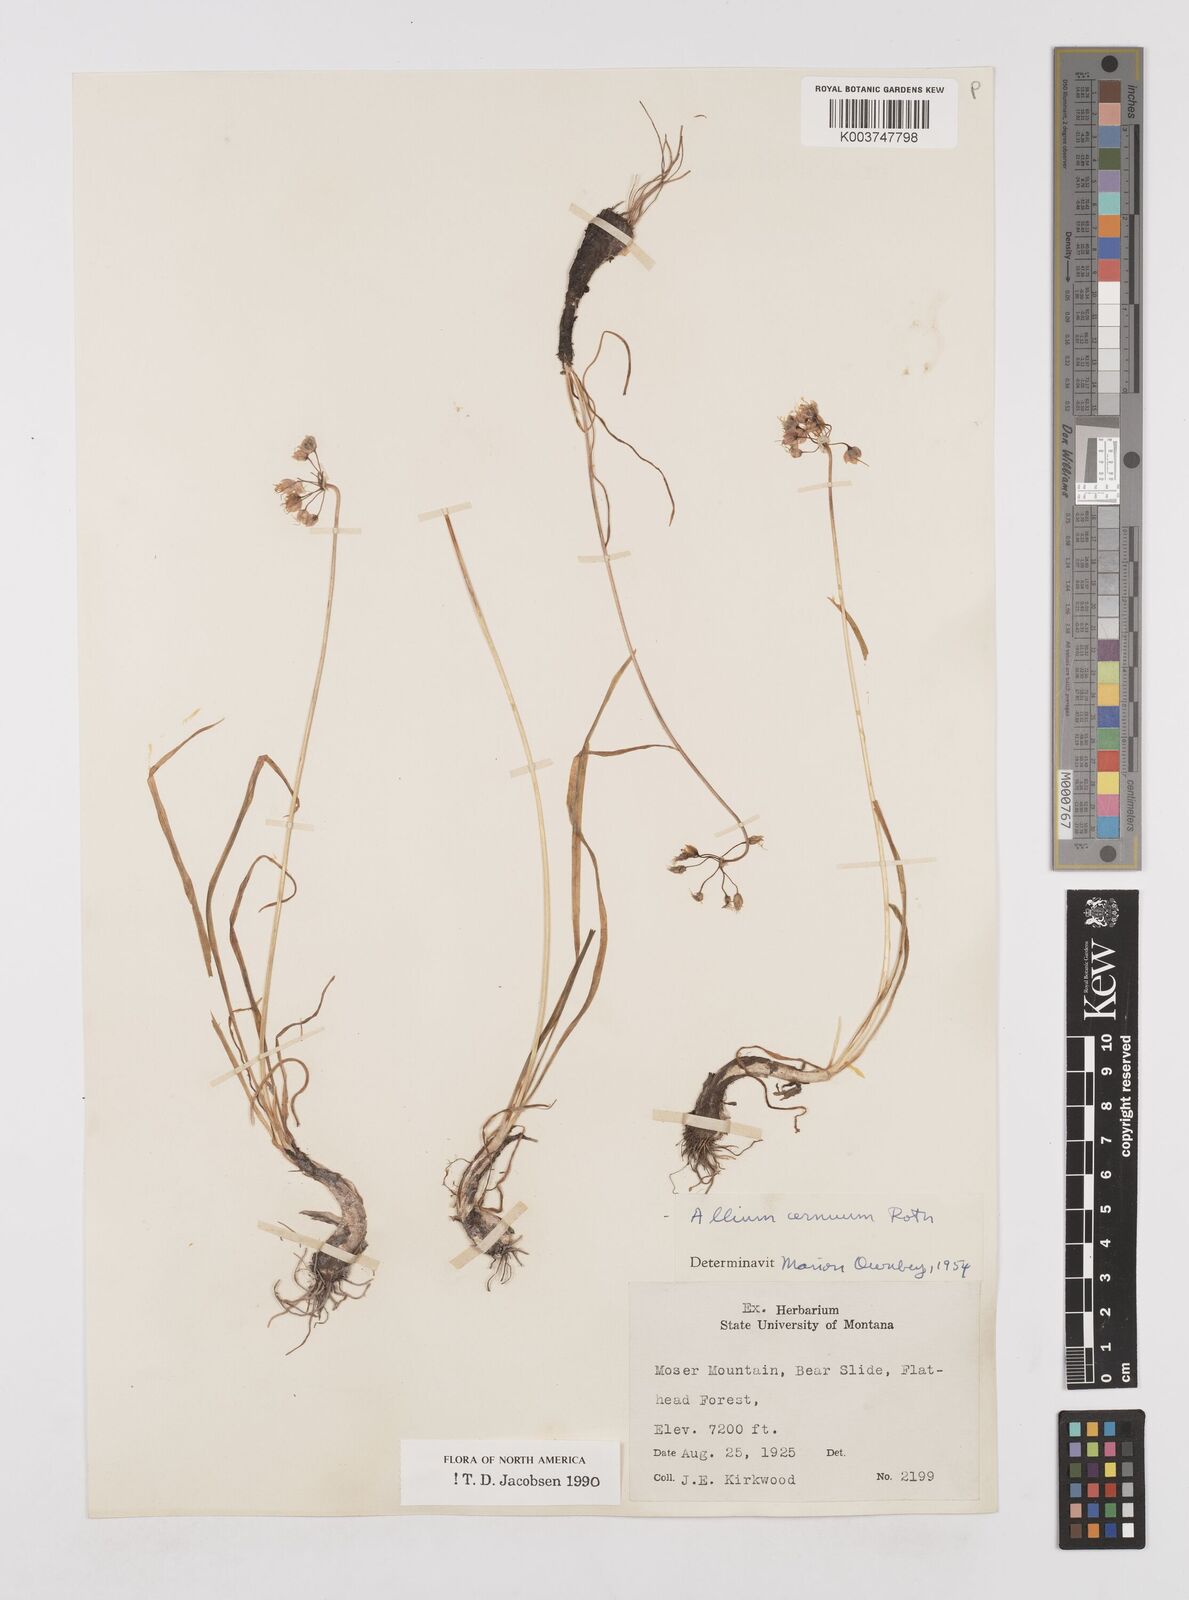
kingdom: Plantae
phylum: Tracheophyta
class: Liliopsida
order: Asparagales
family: Amaryllidaceae
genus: Allium
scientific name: Allium cernuum
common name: Nodding onion
